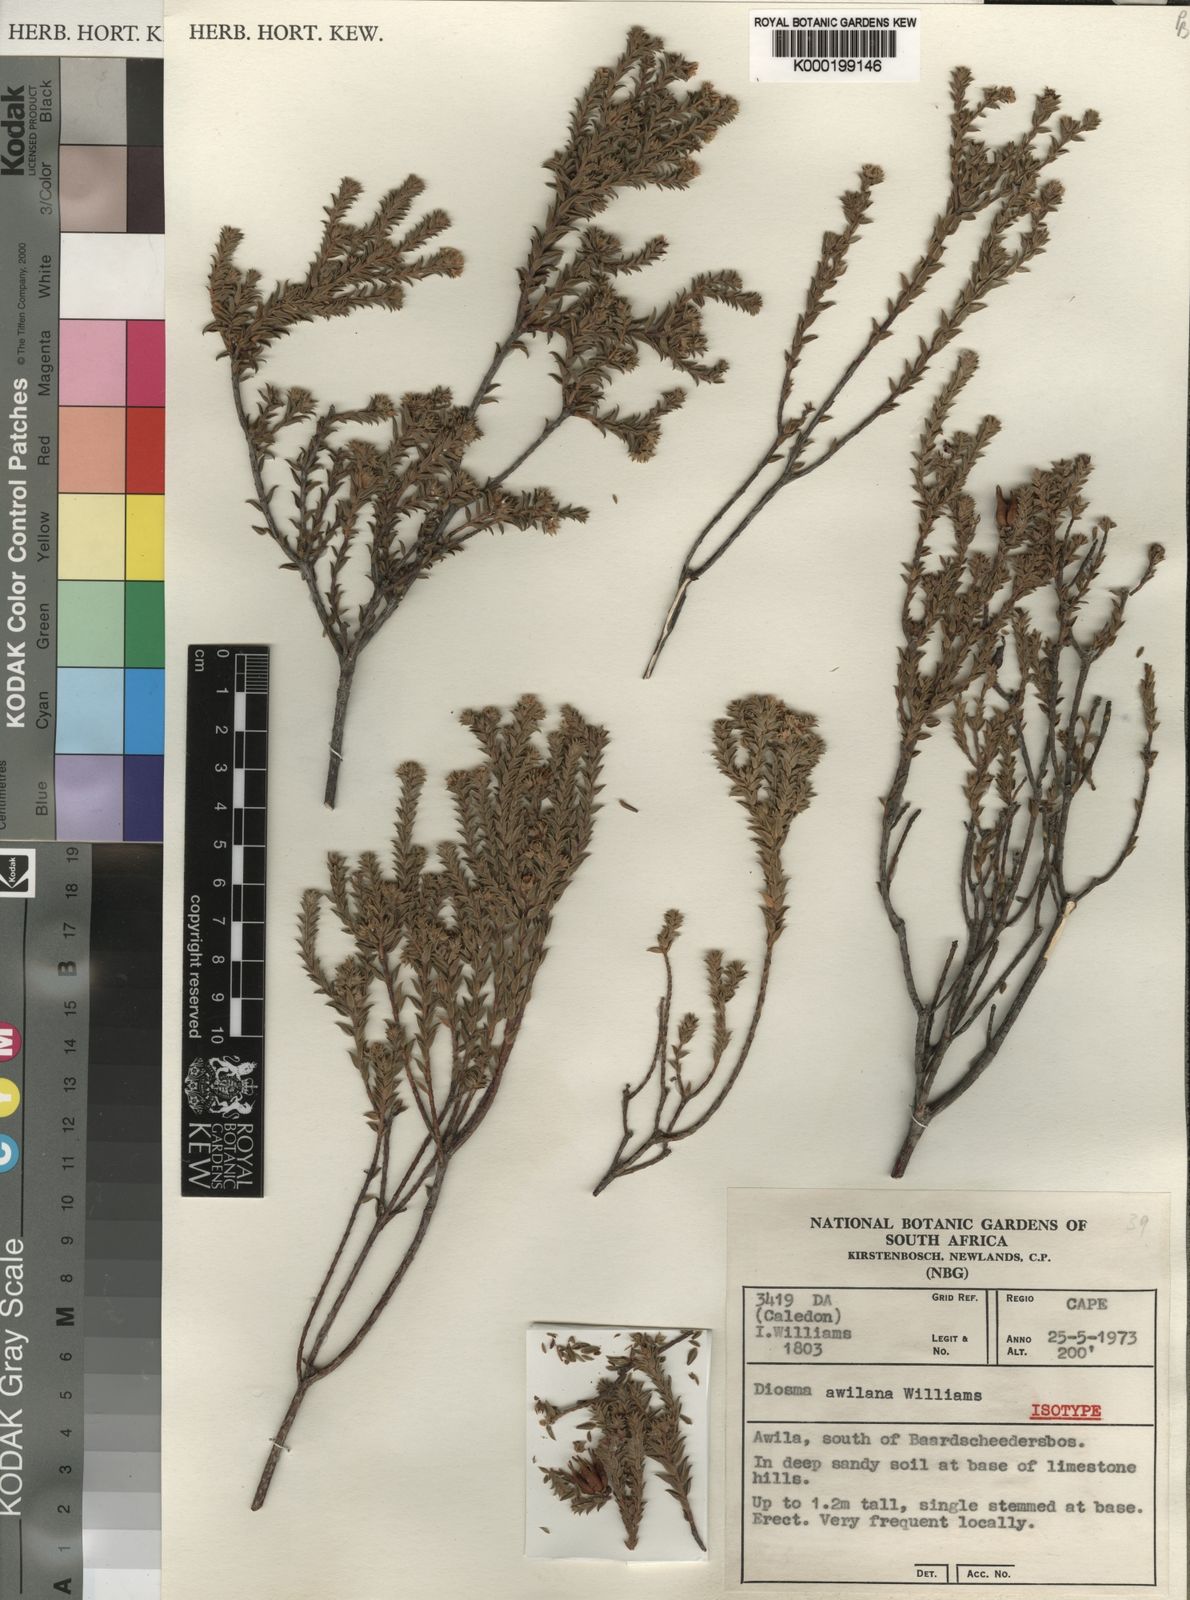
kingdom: Plantae
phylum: Tracheophyta
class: Magnoliopsida
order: Sapindales
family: Rutaceae
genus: Diosma
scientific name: Diosma awilana
